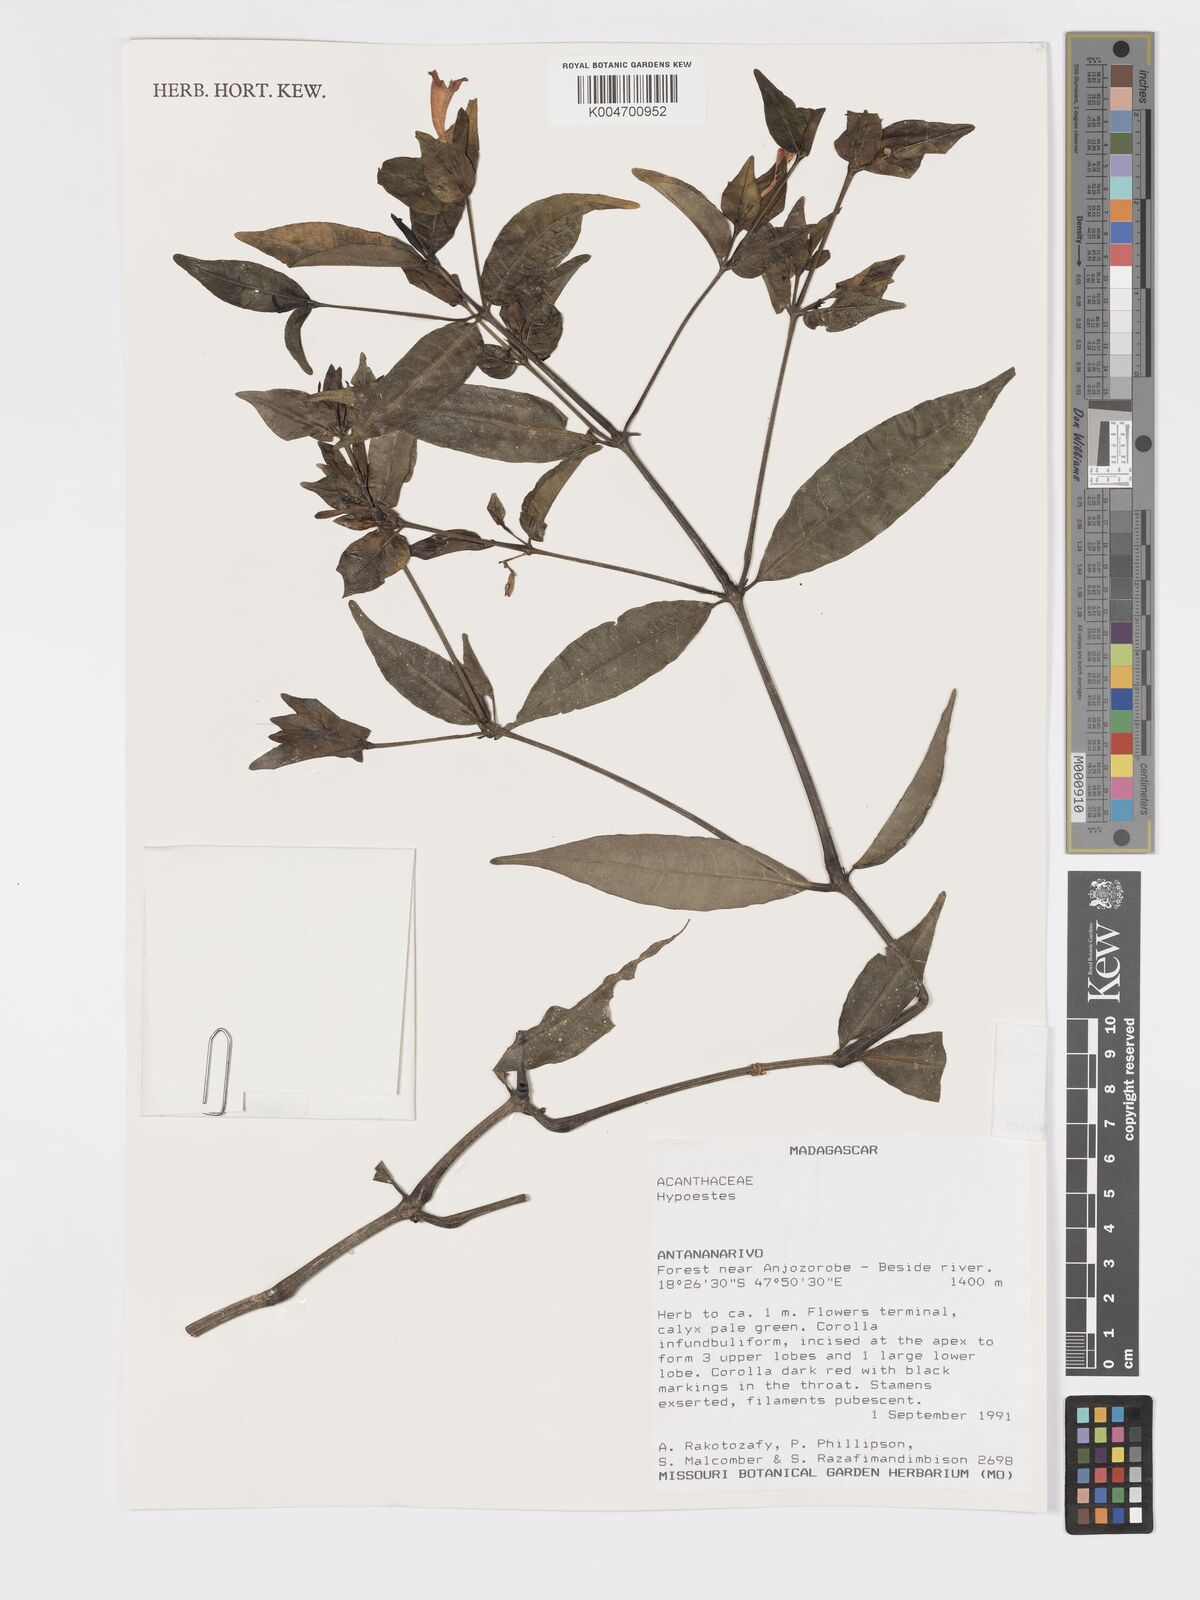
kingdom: Plantae
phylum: Tracheophyta
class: Magnoliopsida
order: Lamiales
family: Acanthaceae
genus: Hypoestes
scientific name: Hypoestes
